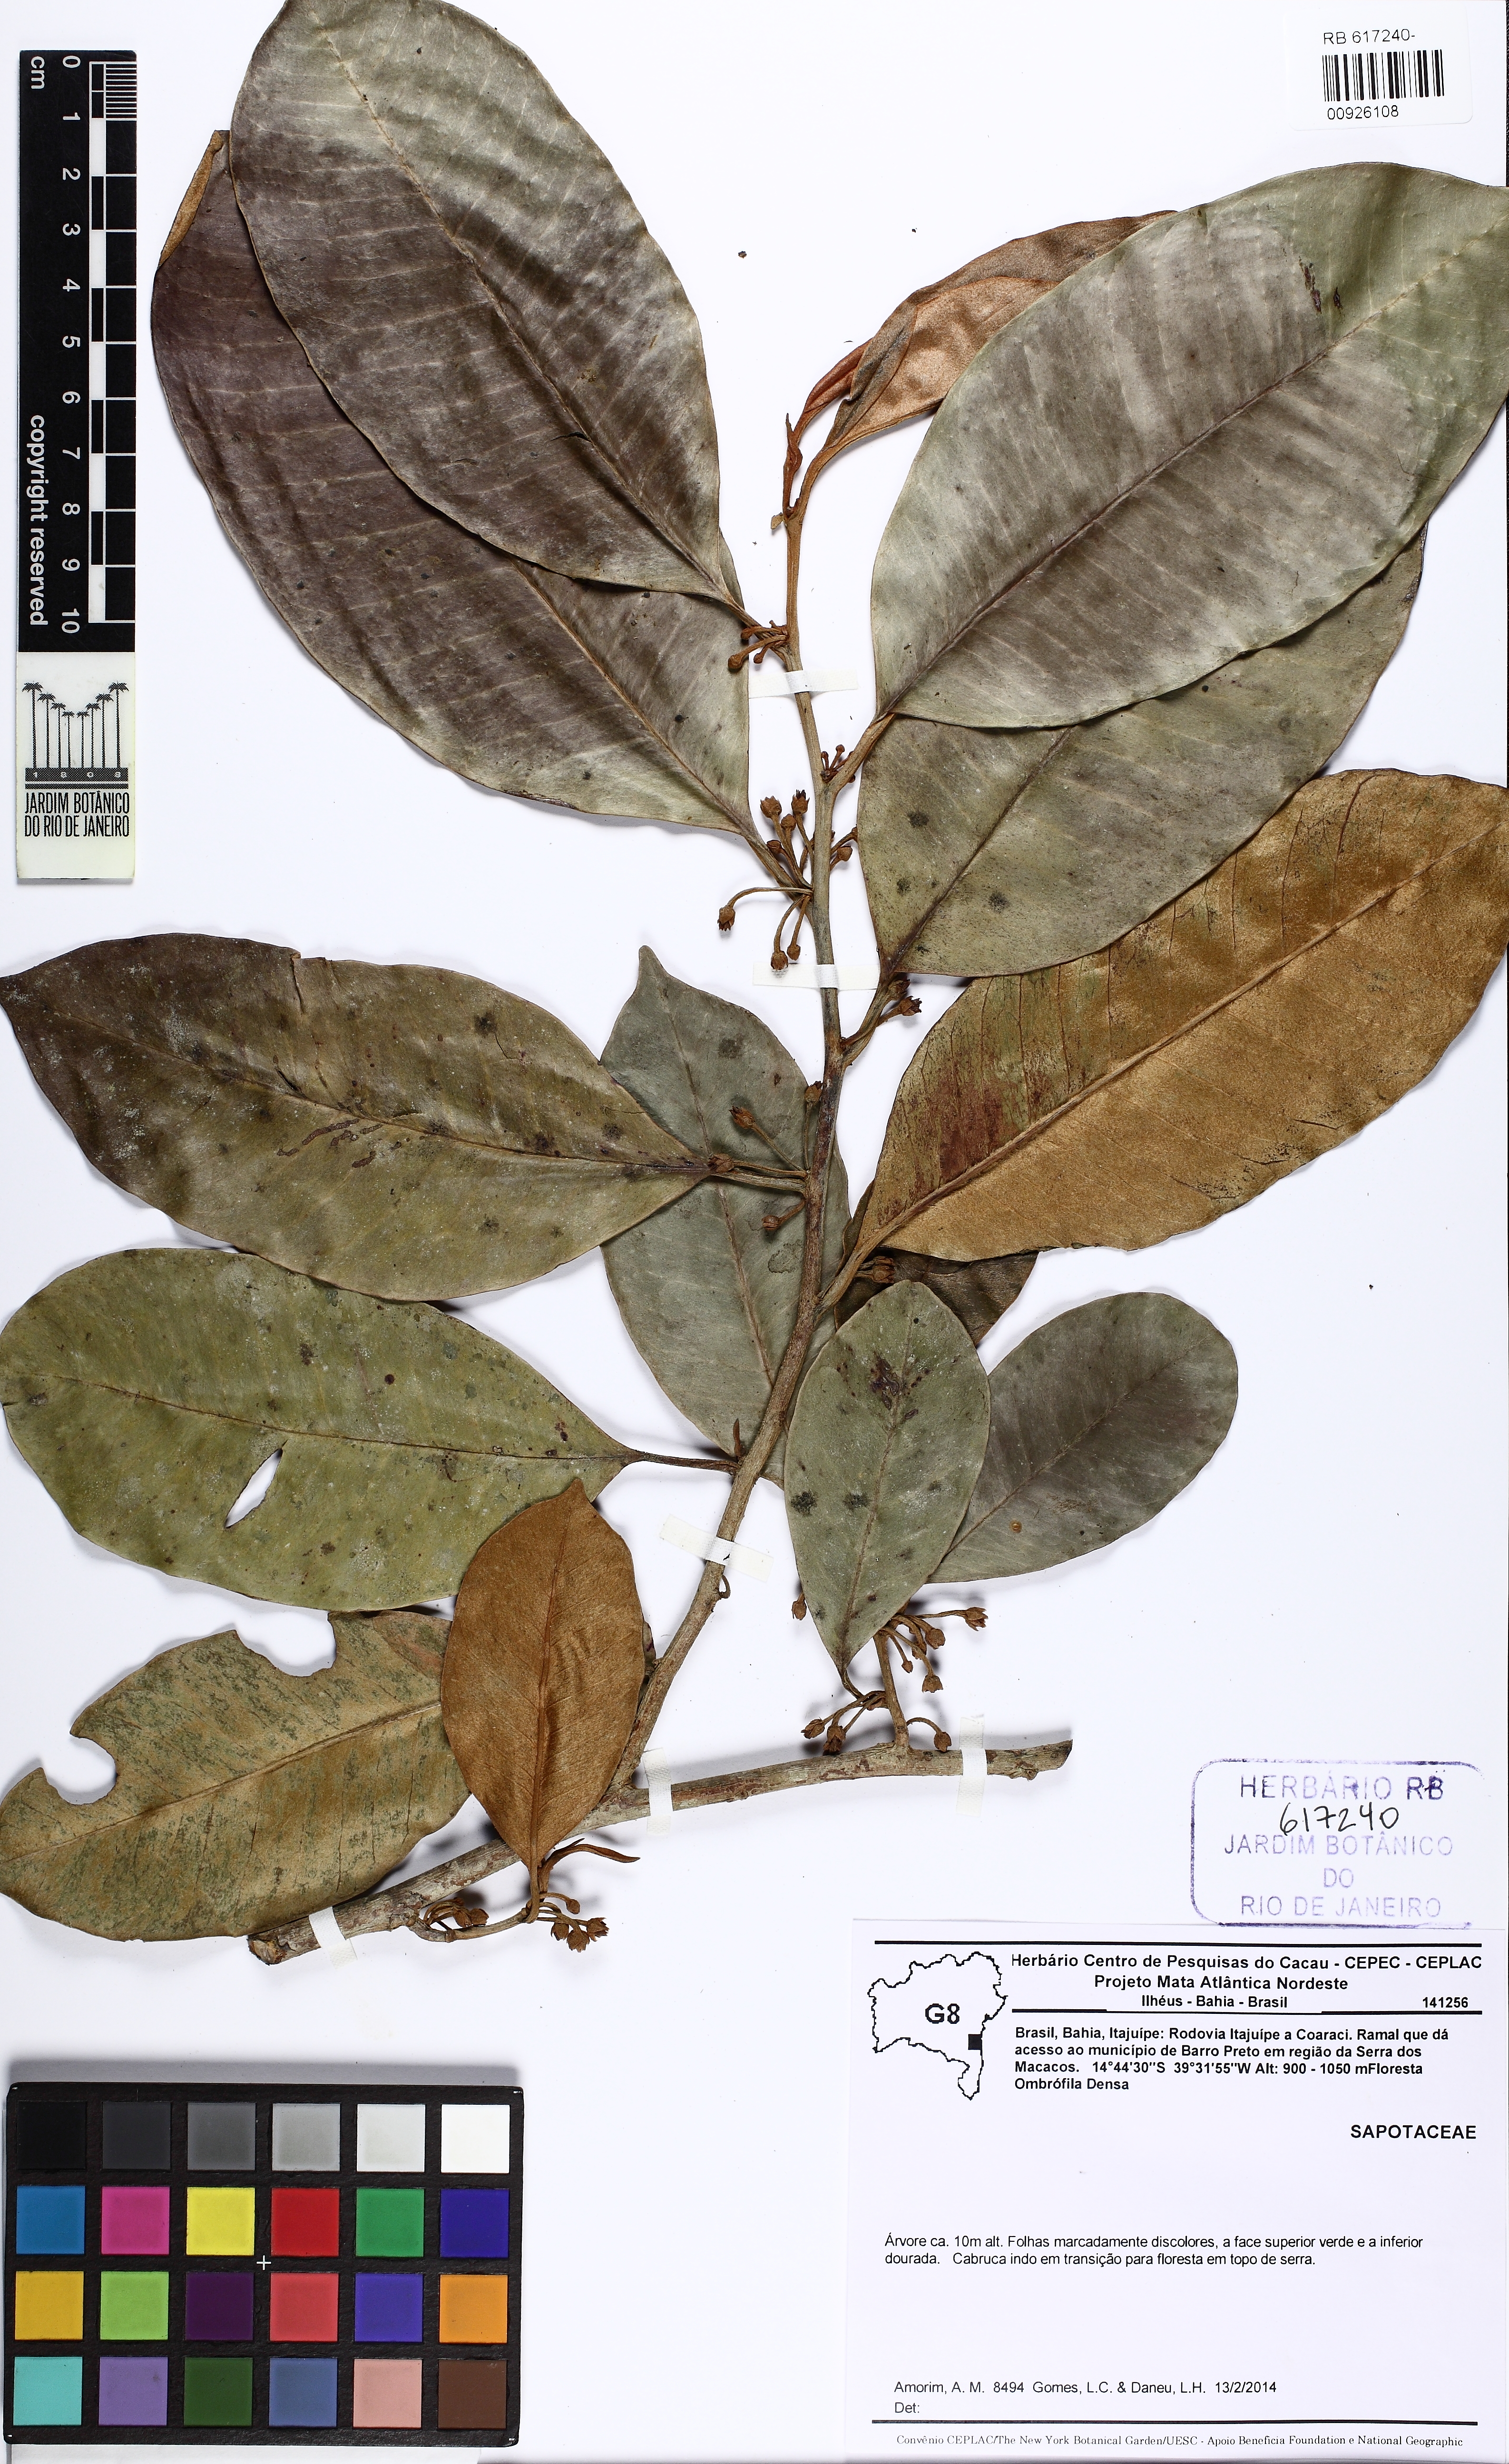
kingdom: Plantae
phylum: Tracheophyta
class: Magnoliopsida
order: Ericales
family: Sapotaceae
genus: Chrysophyllum
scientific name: Chrysophyllum splendens
